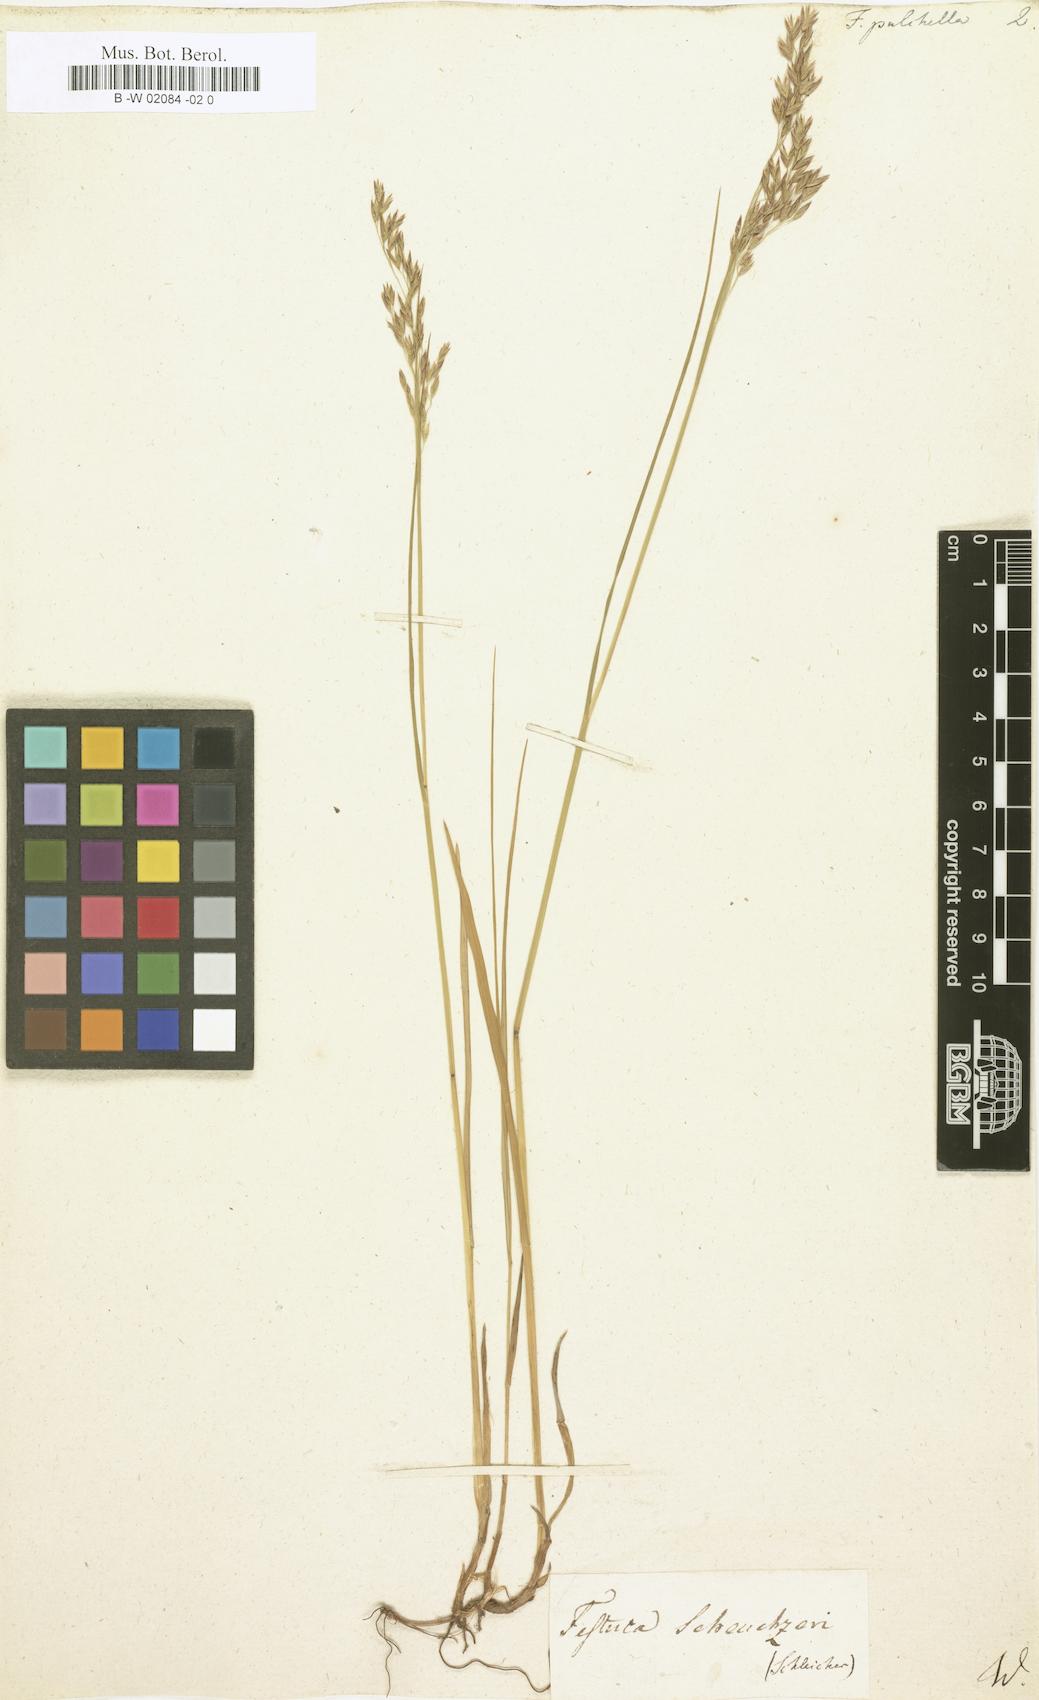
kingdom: Plantae
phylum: Tracheophyta
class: Liliopsida
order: Poales
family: Poaceae
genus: Festuca
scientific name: Festuca pulchella
